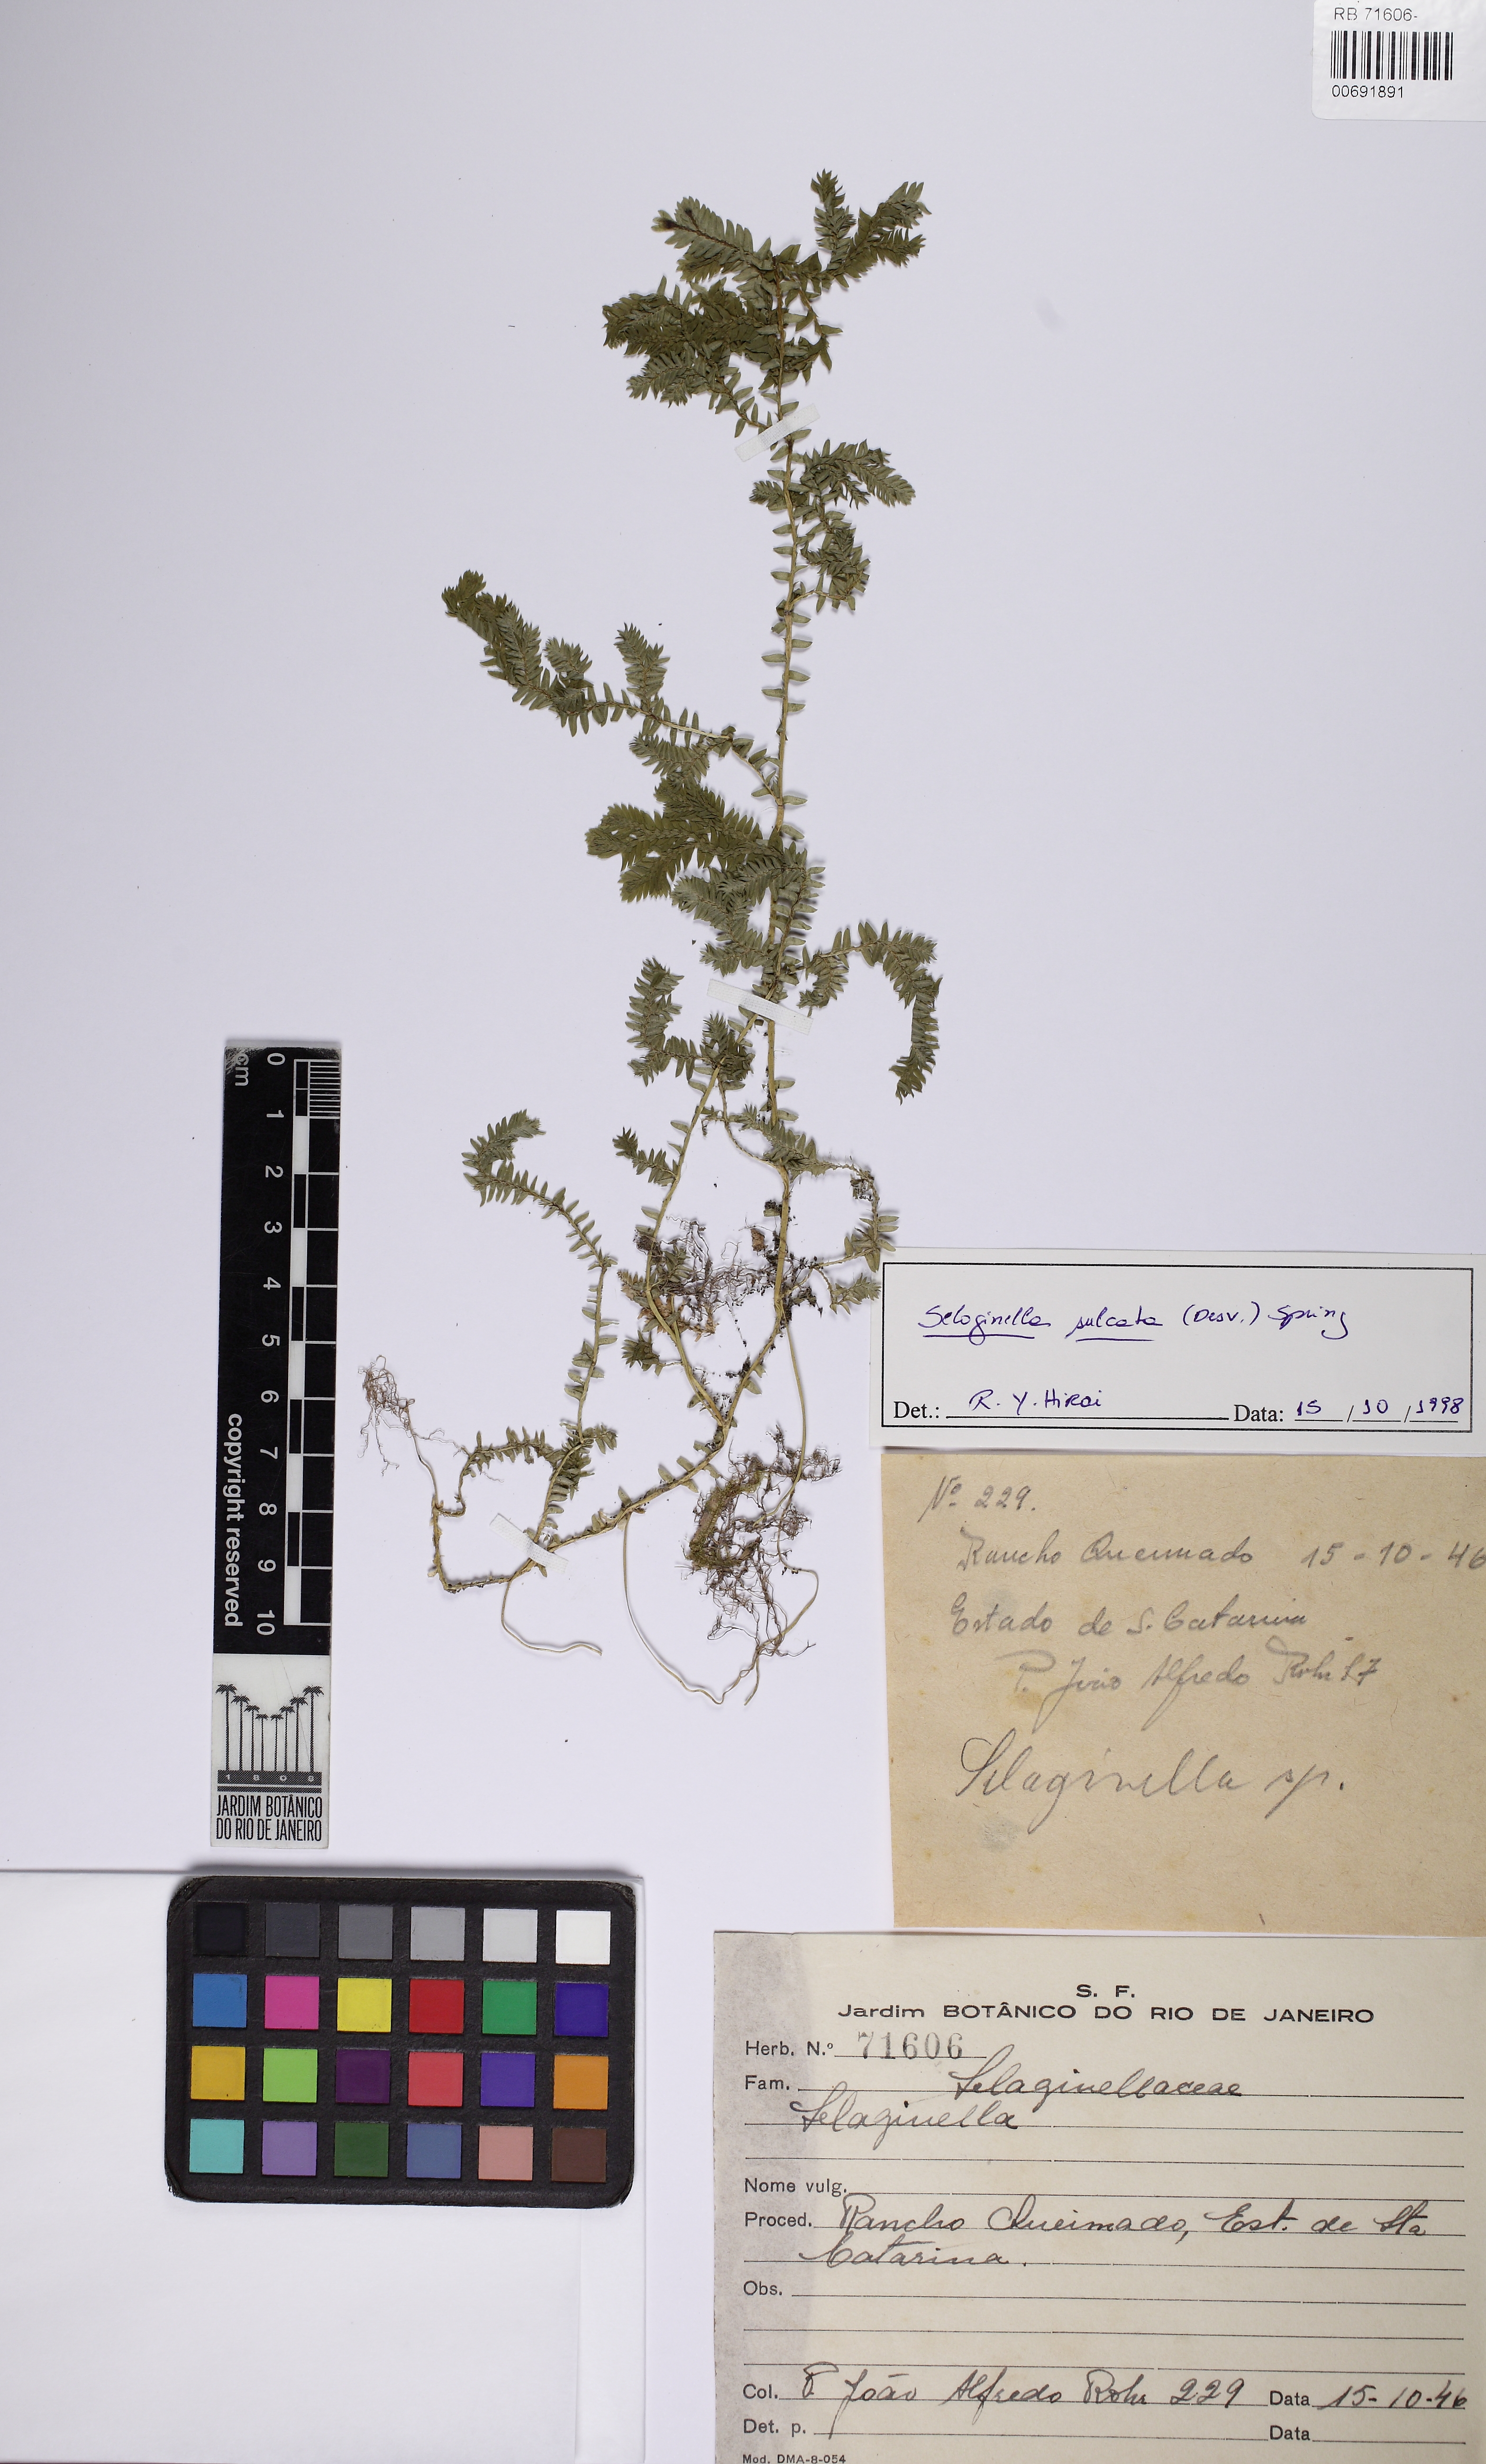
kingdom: Plantae
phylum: Tracheophyta
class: Lycopodiopsida
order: Selaginellales
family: Selaginellaceae
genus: Selaginella
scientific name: Selaginella sulcata
